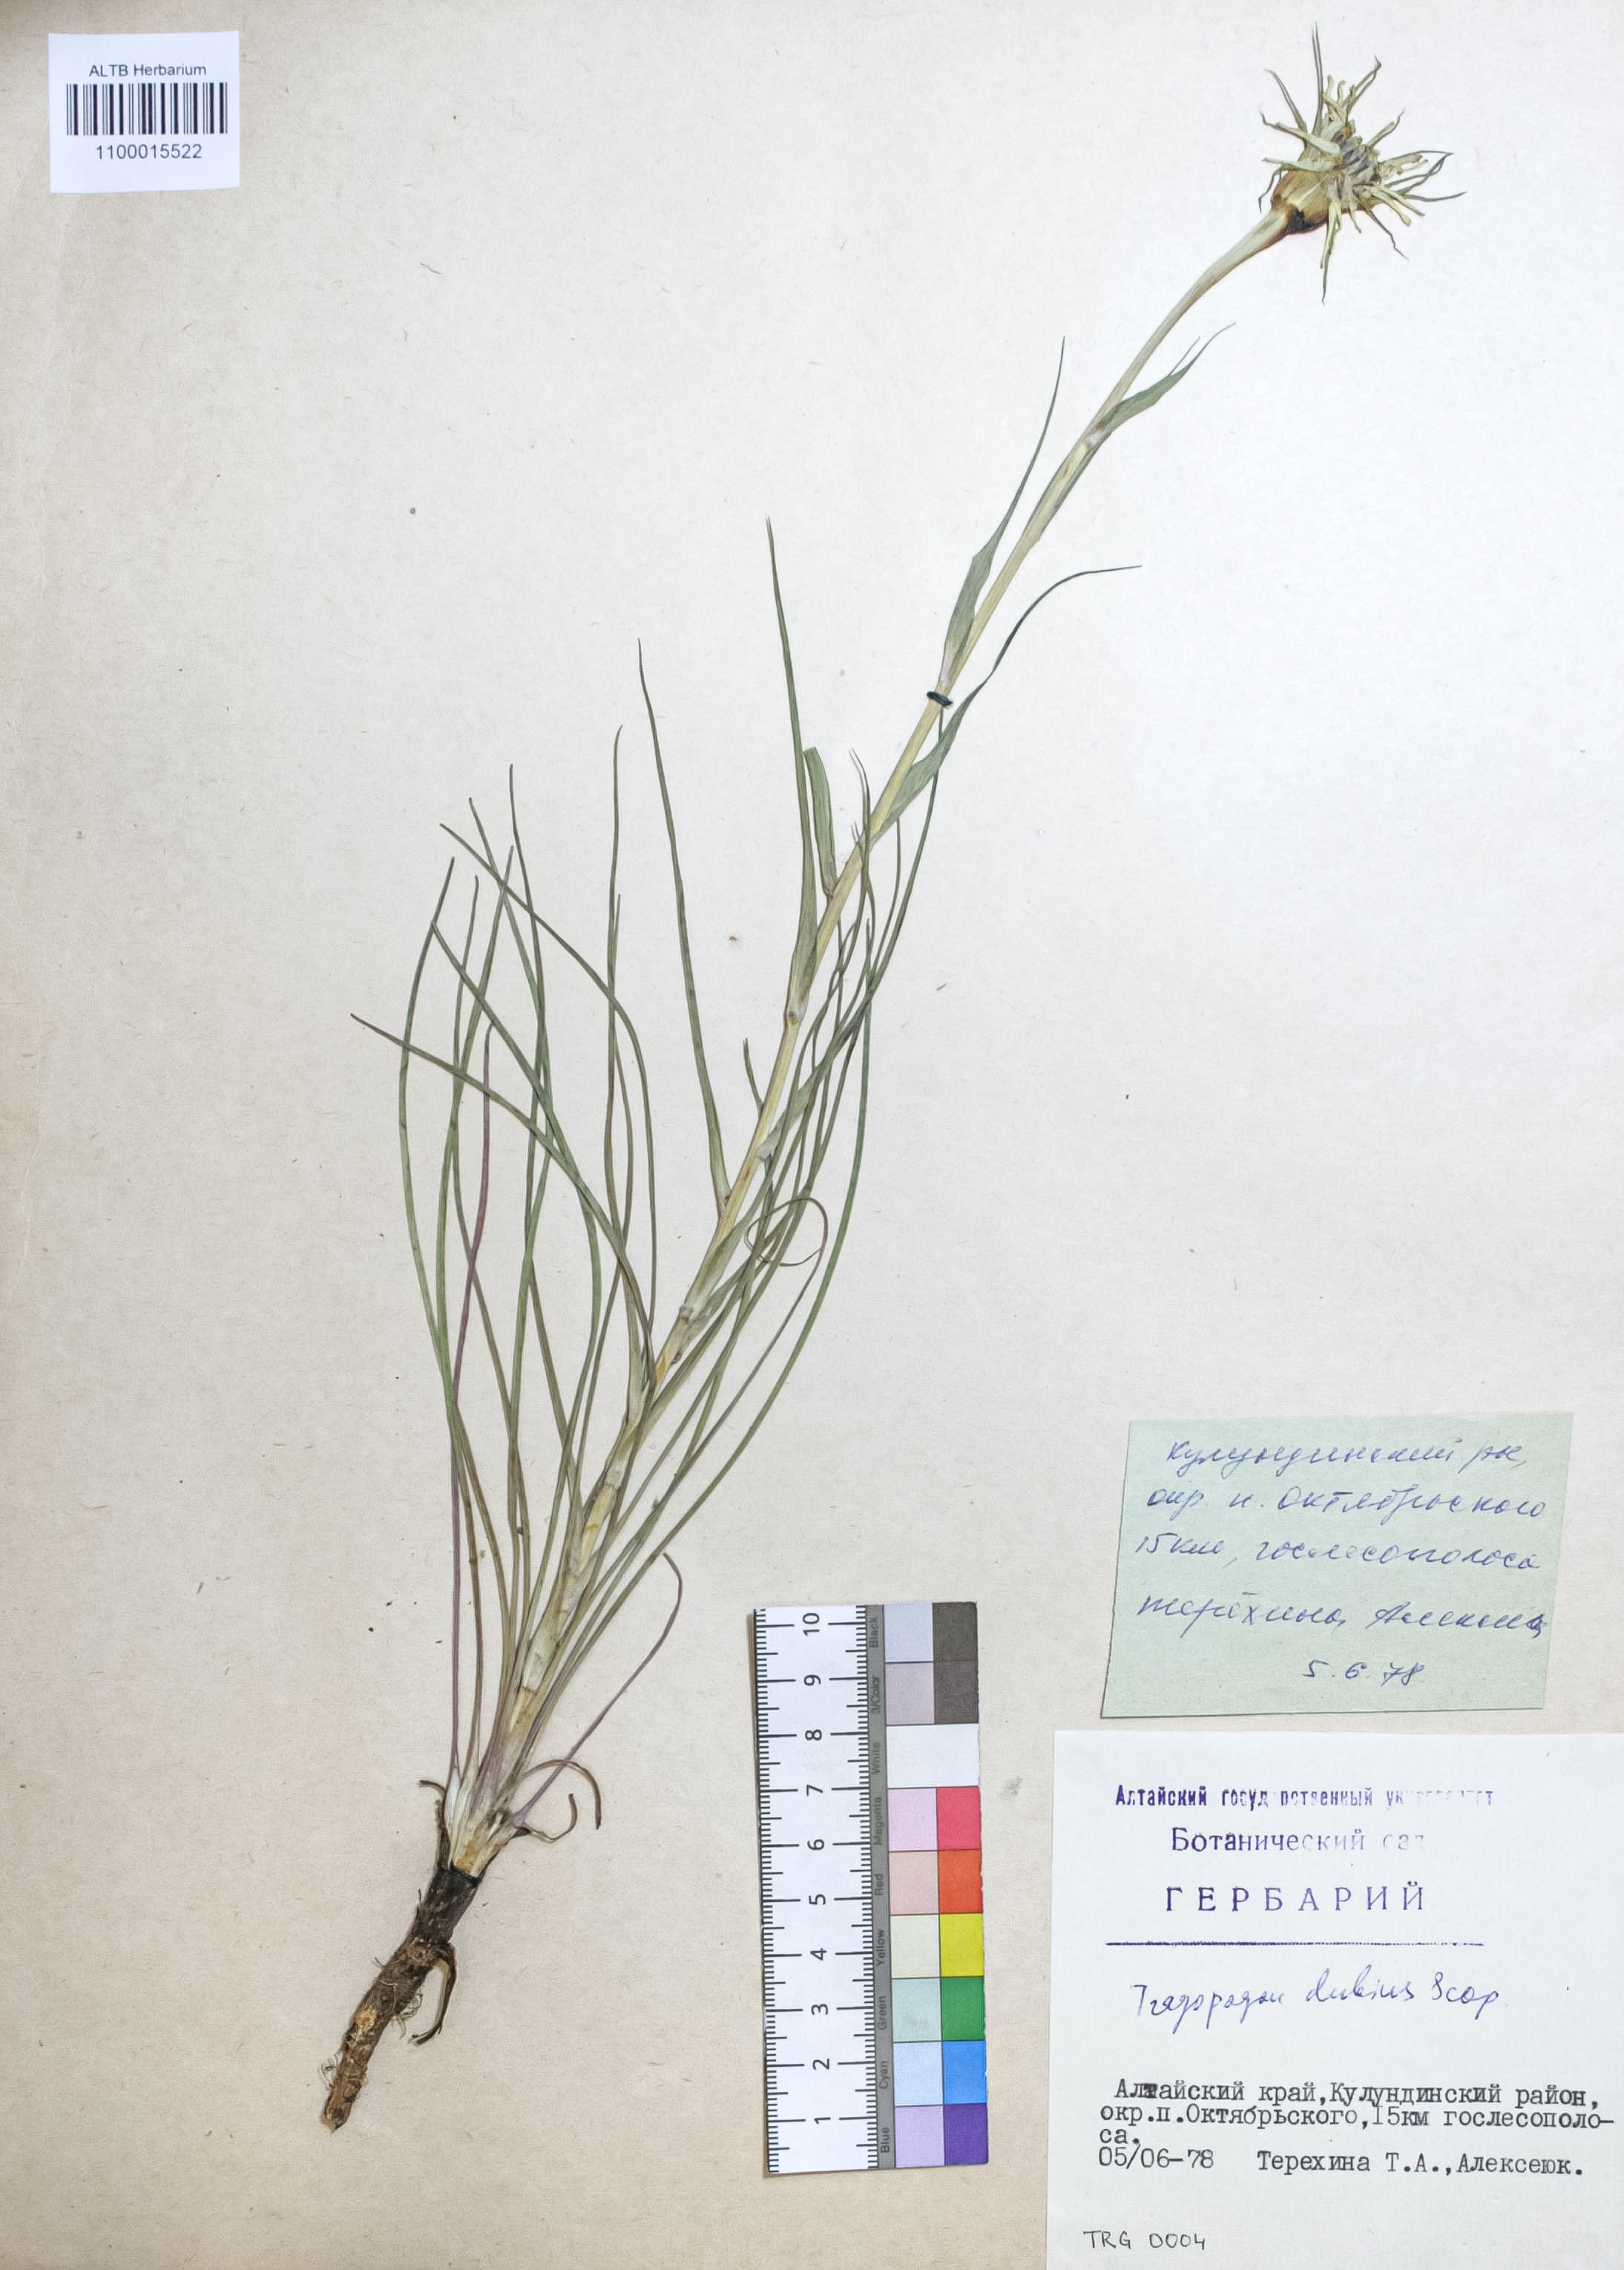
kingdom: Plantae
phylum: Tracheophyta
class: Magnoliopsida
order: Asterales
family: Asteraceae
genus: Tragopogon
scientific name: Tragopogon dubius
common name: Yellow salsify
